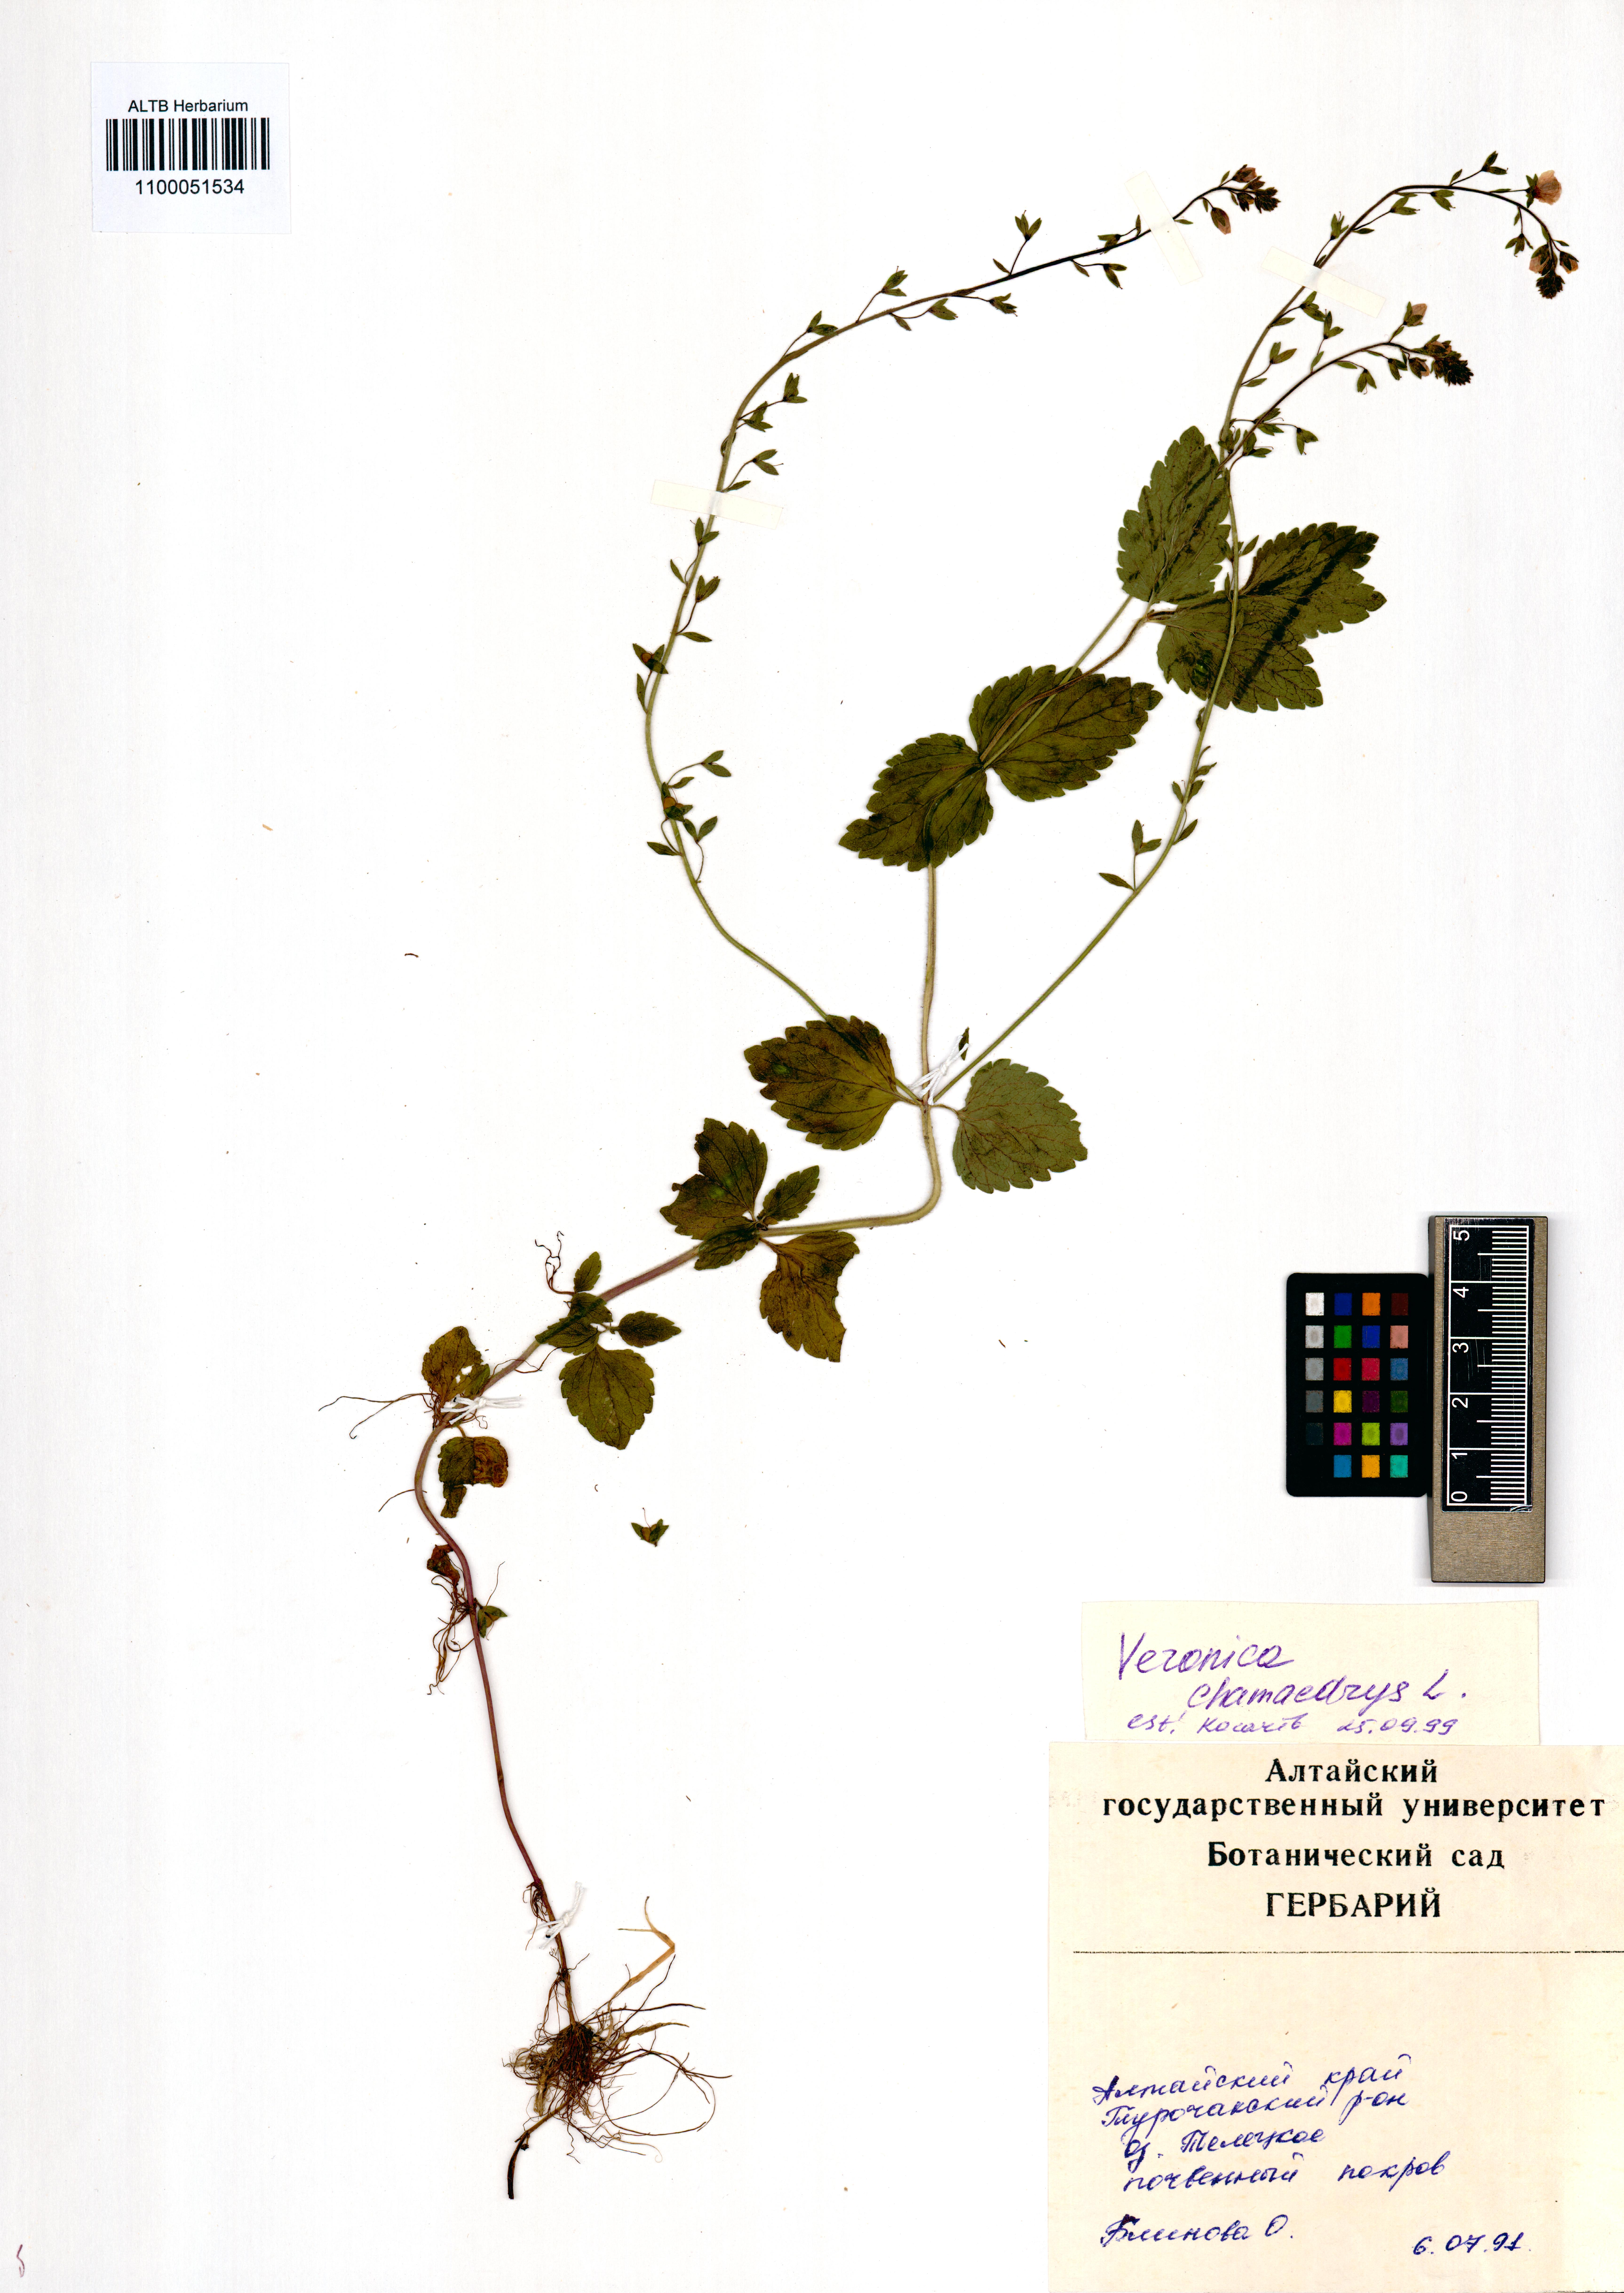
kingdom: Plantae
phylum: Tracheophyta
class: Magnoliopsida
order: Lamiales
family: Plantaginaceae
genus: Veronica
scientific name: Veronica chamaedrys
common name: Germander speedwell
